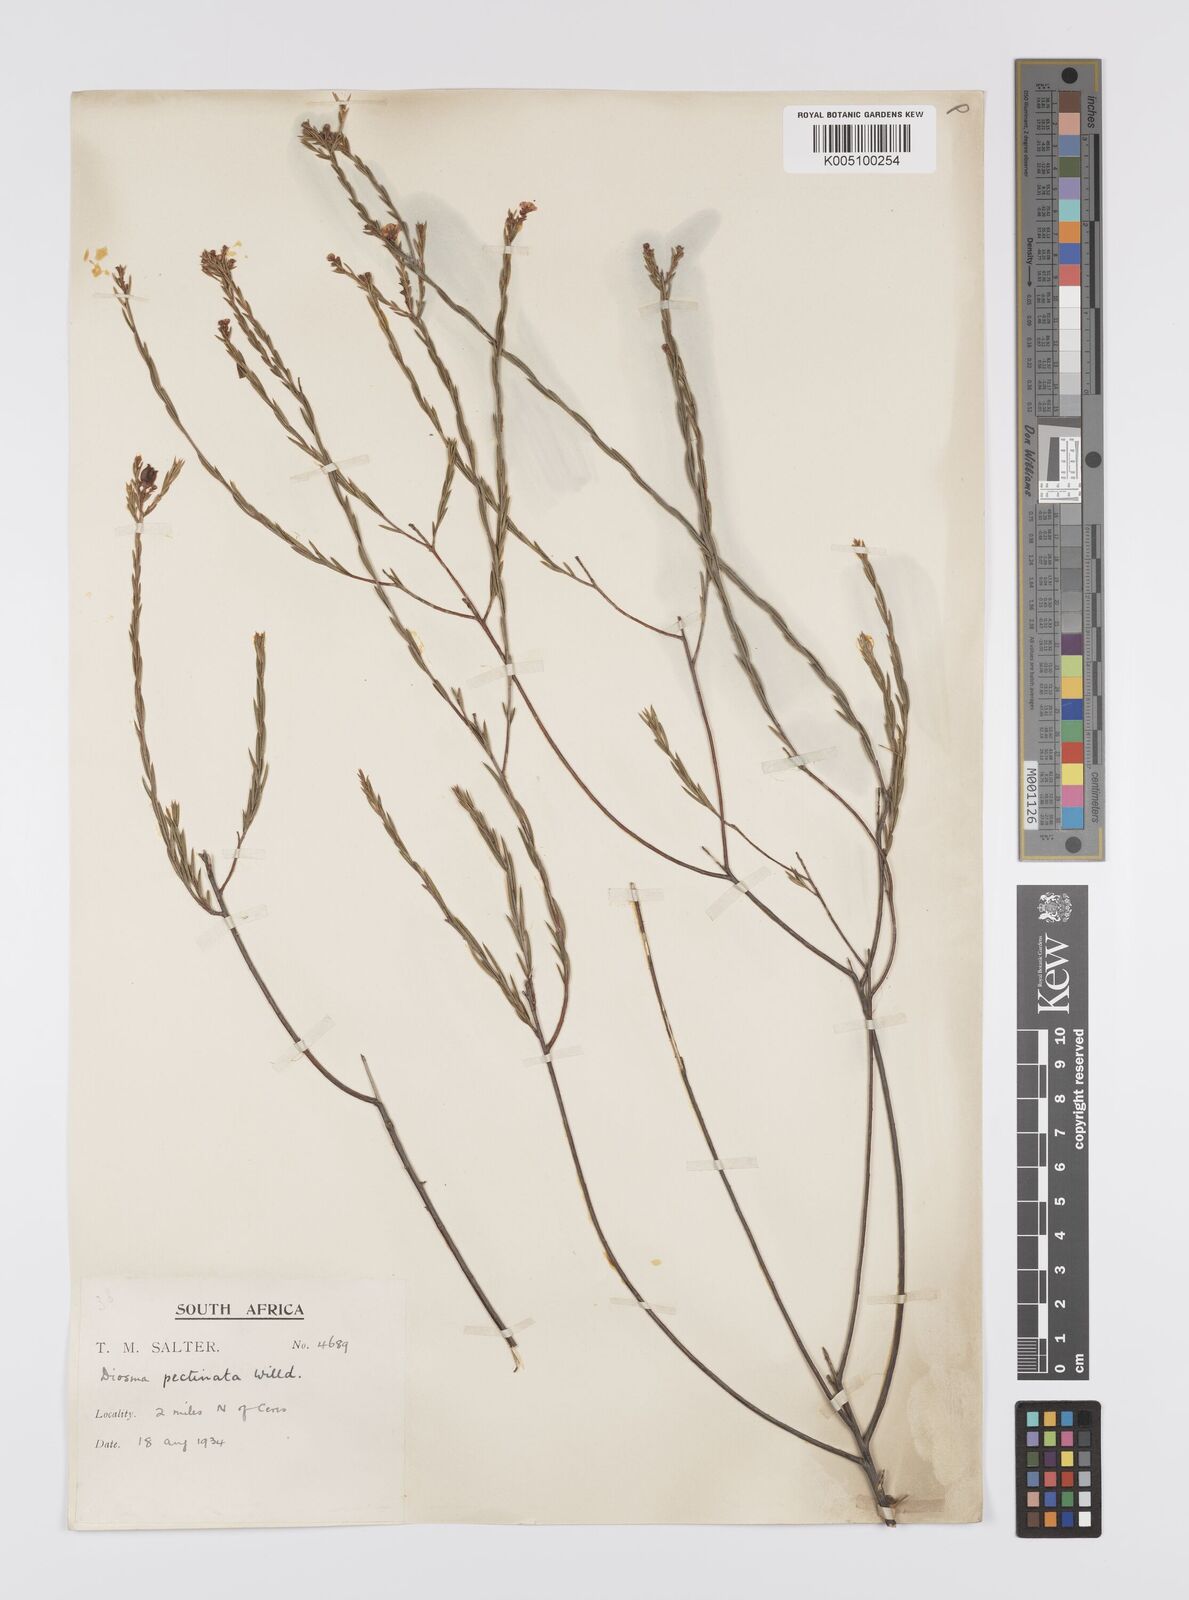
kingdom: Plantae
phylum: Tracheophyta
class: Magnoliopsida
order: Sapindales
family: Rutaceae
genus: Diosma
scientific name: Diosma hirsuta
